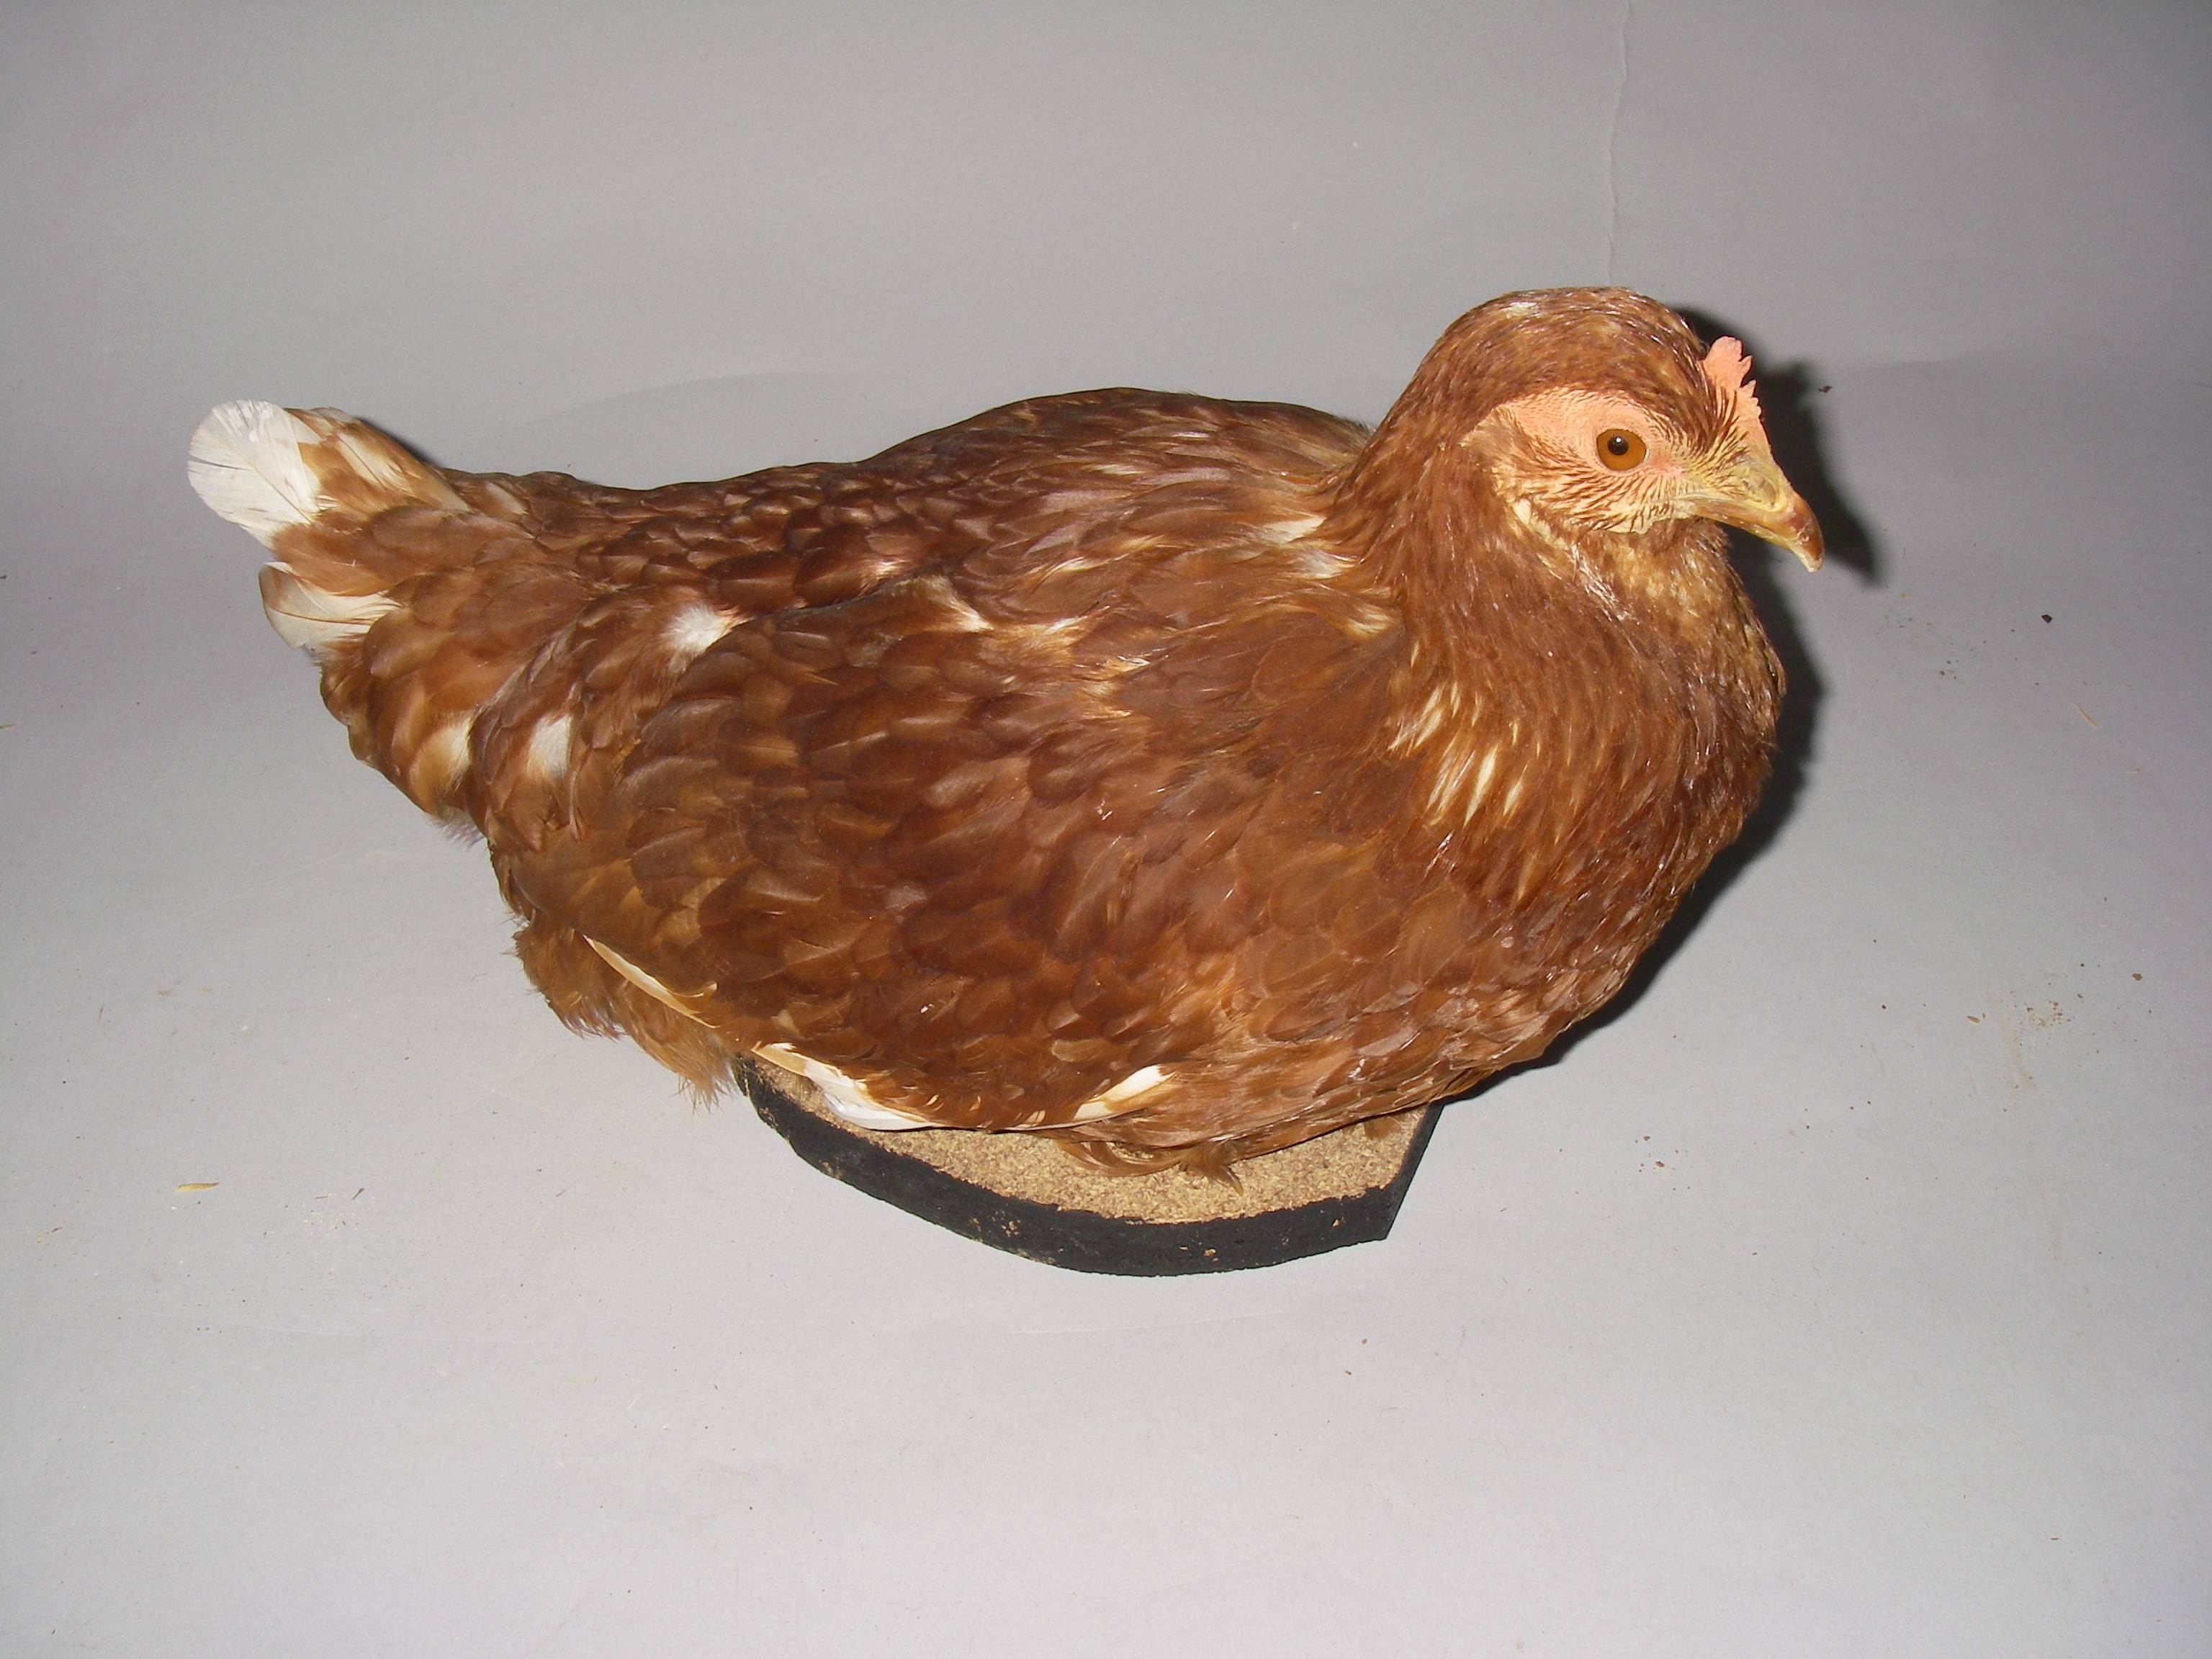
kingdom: Animalia
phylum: Chordata
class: Aves
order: Galliformes
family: Phasianidae
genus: Gallus
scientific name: Gallus gallus
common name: Red junglefowl
